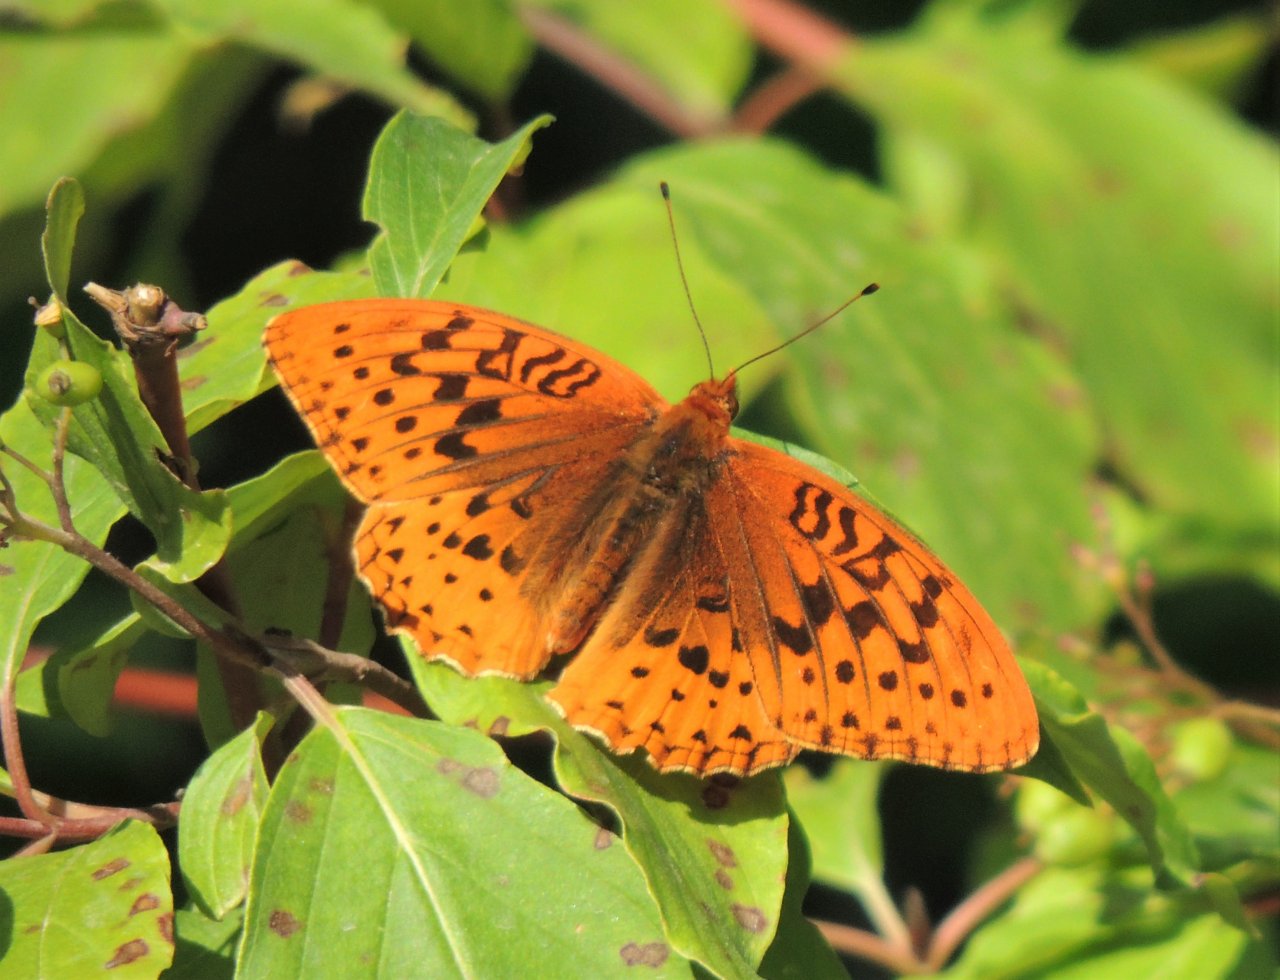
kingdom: Animalia
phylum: Arthropoda
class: Insecta
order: Lepidoptera
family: Nymphalidae
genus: Speyeria
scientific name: Speyeria cybele
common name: Great Spangled Fritillary
